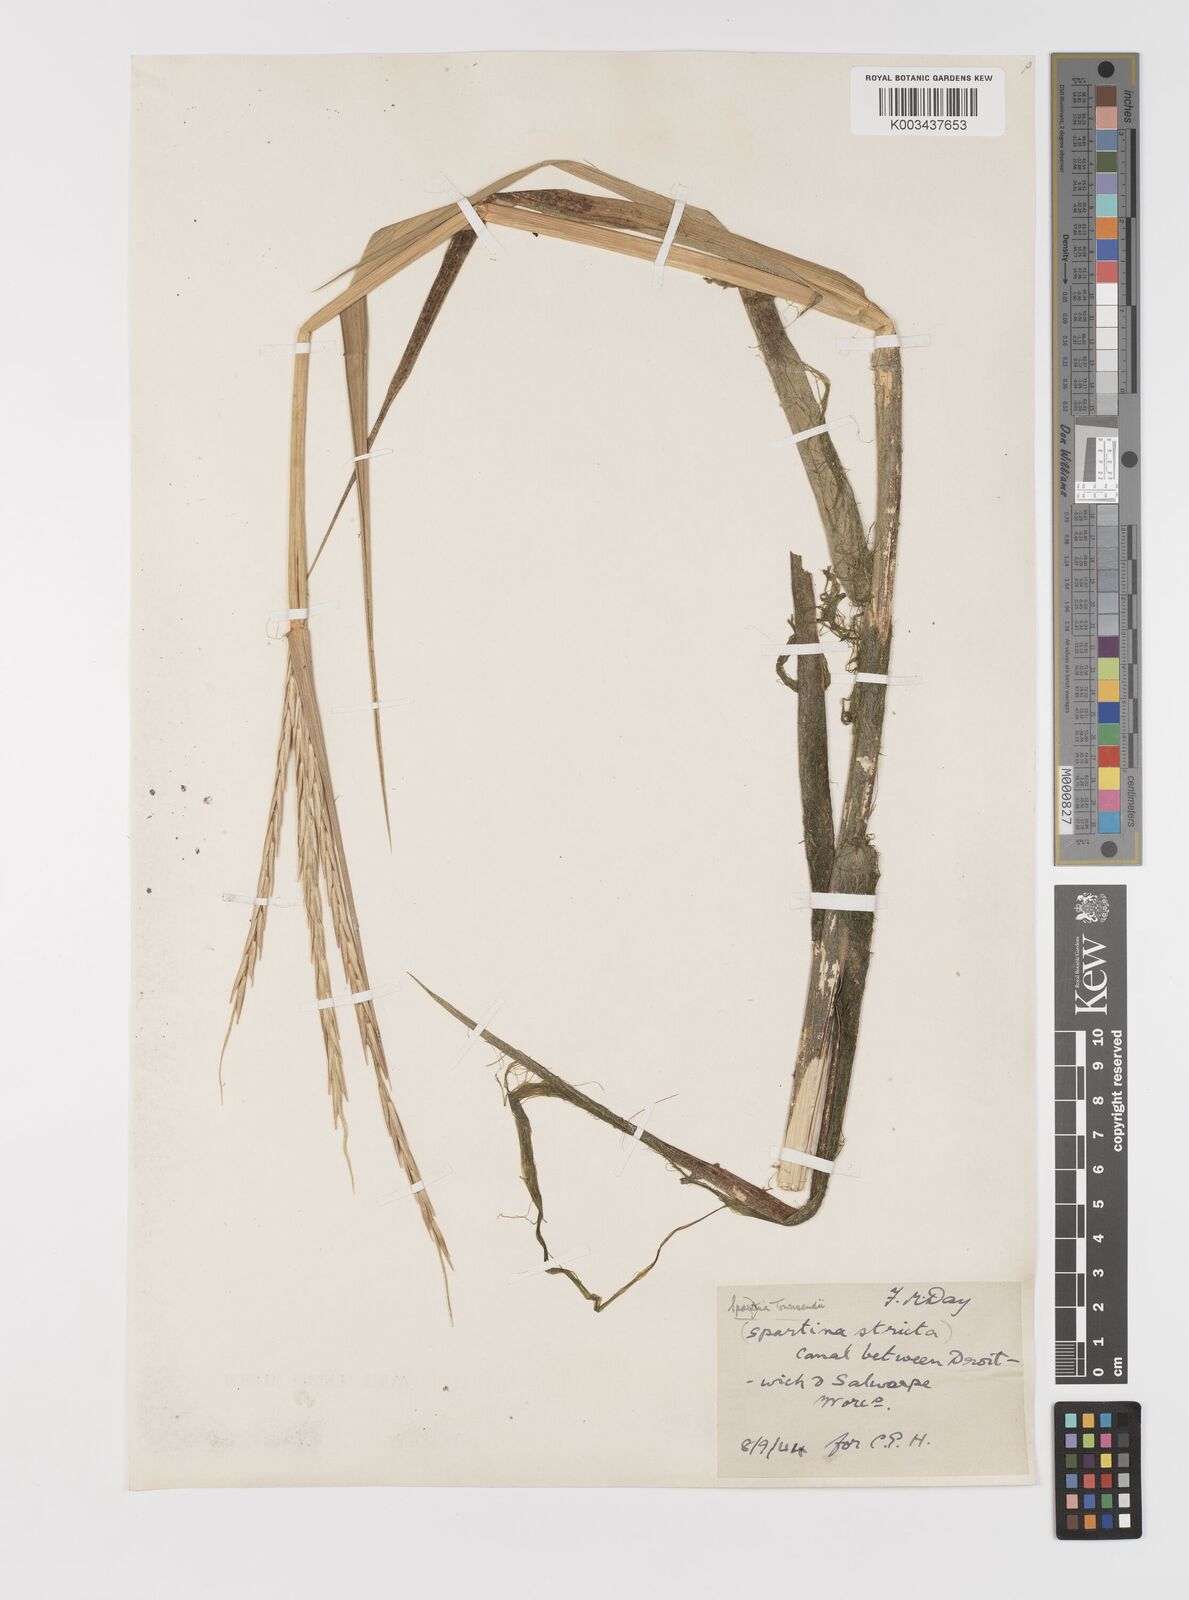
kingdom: Plantae
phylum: Tracheophyta
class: Liliopsida
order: Poales
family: Poaceae
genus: Sporobolus
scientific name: Sporobolus anglicus
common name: English cordgrass
